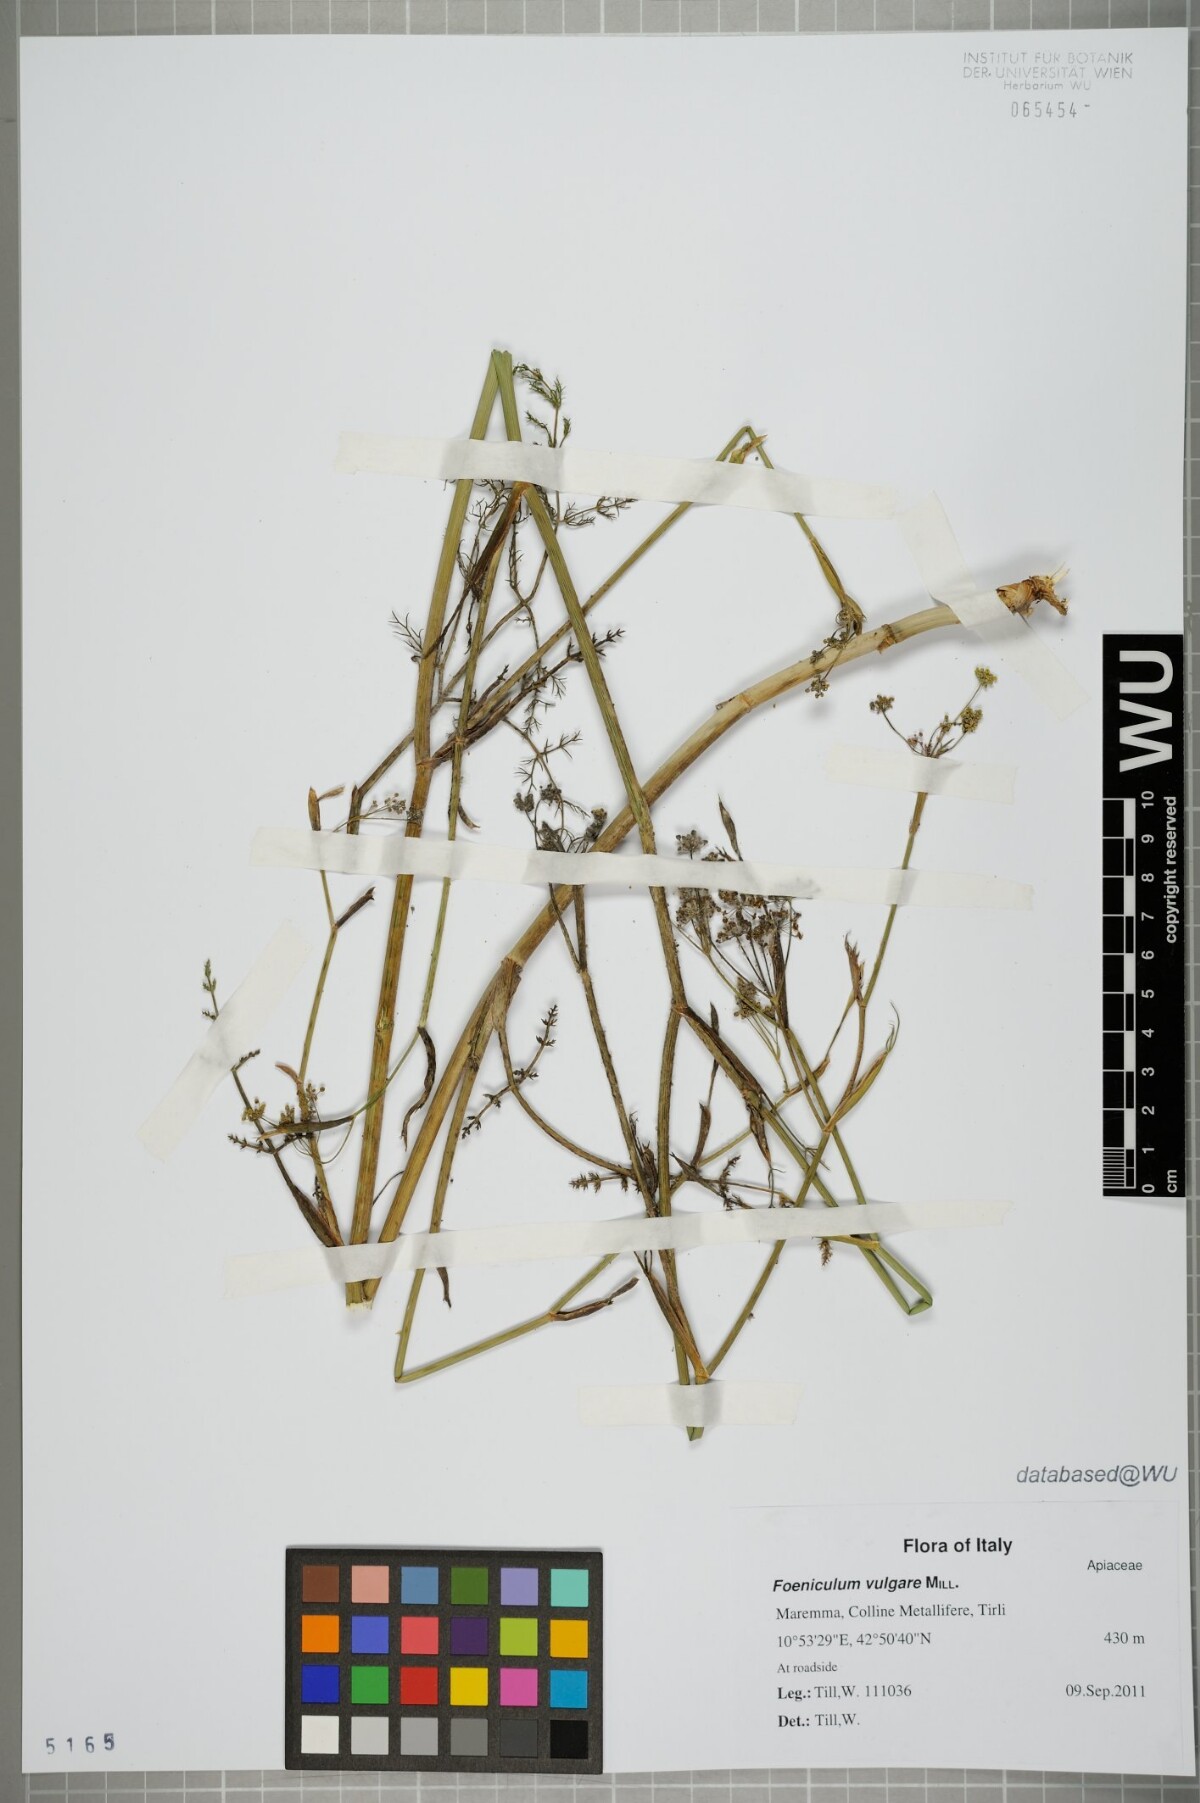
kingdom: Plantae
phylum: Tracheophyta
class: Magnoliopsida
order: Apiales
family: Apiaceae
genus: Foeniculum
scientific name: Foeniculum vulgare
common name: Fennel
